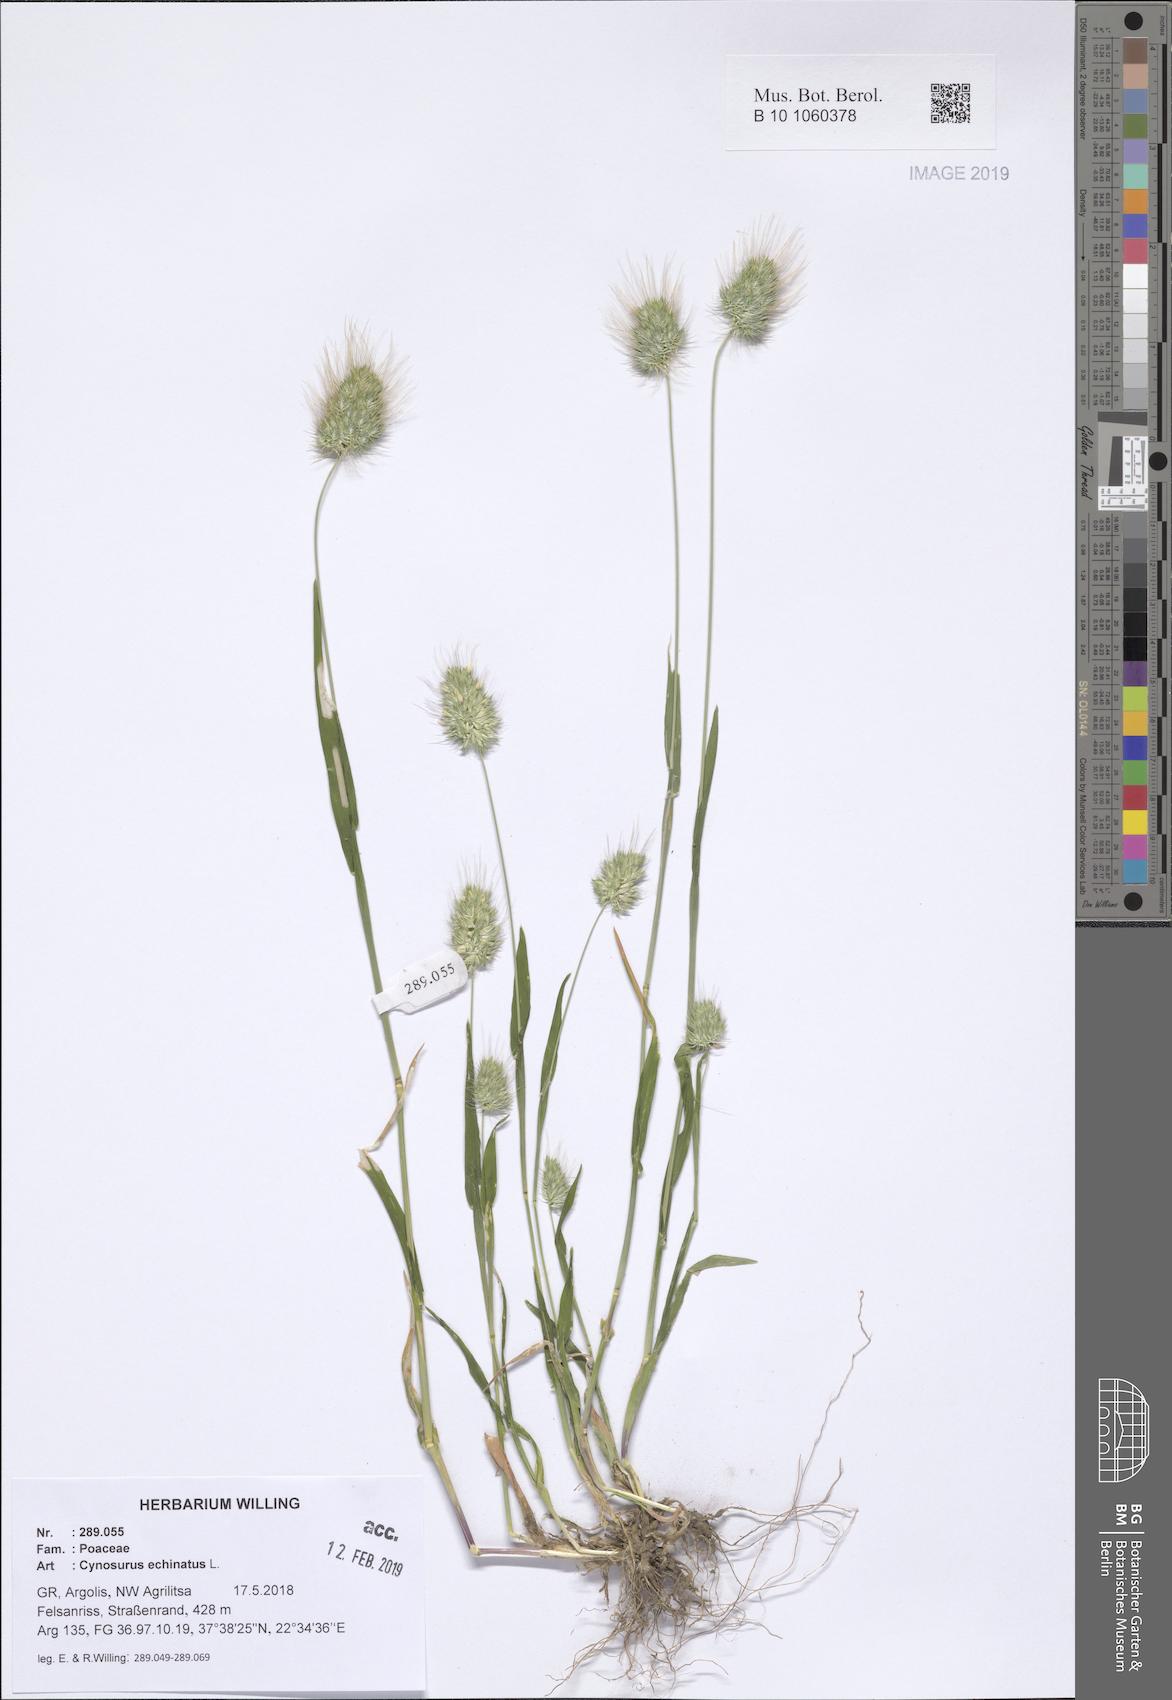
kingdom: Plantae
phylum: Tracheophyta
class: Liliopsida
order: Poales
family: Poaceae
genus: Cynosurus
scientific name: Cynosurus echinatus
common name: Rough dog's-tail
